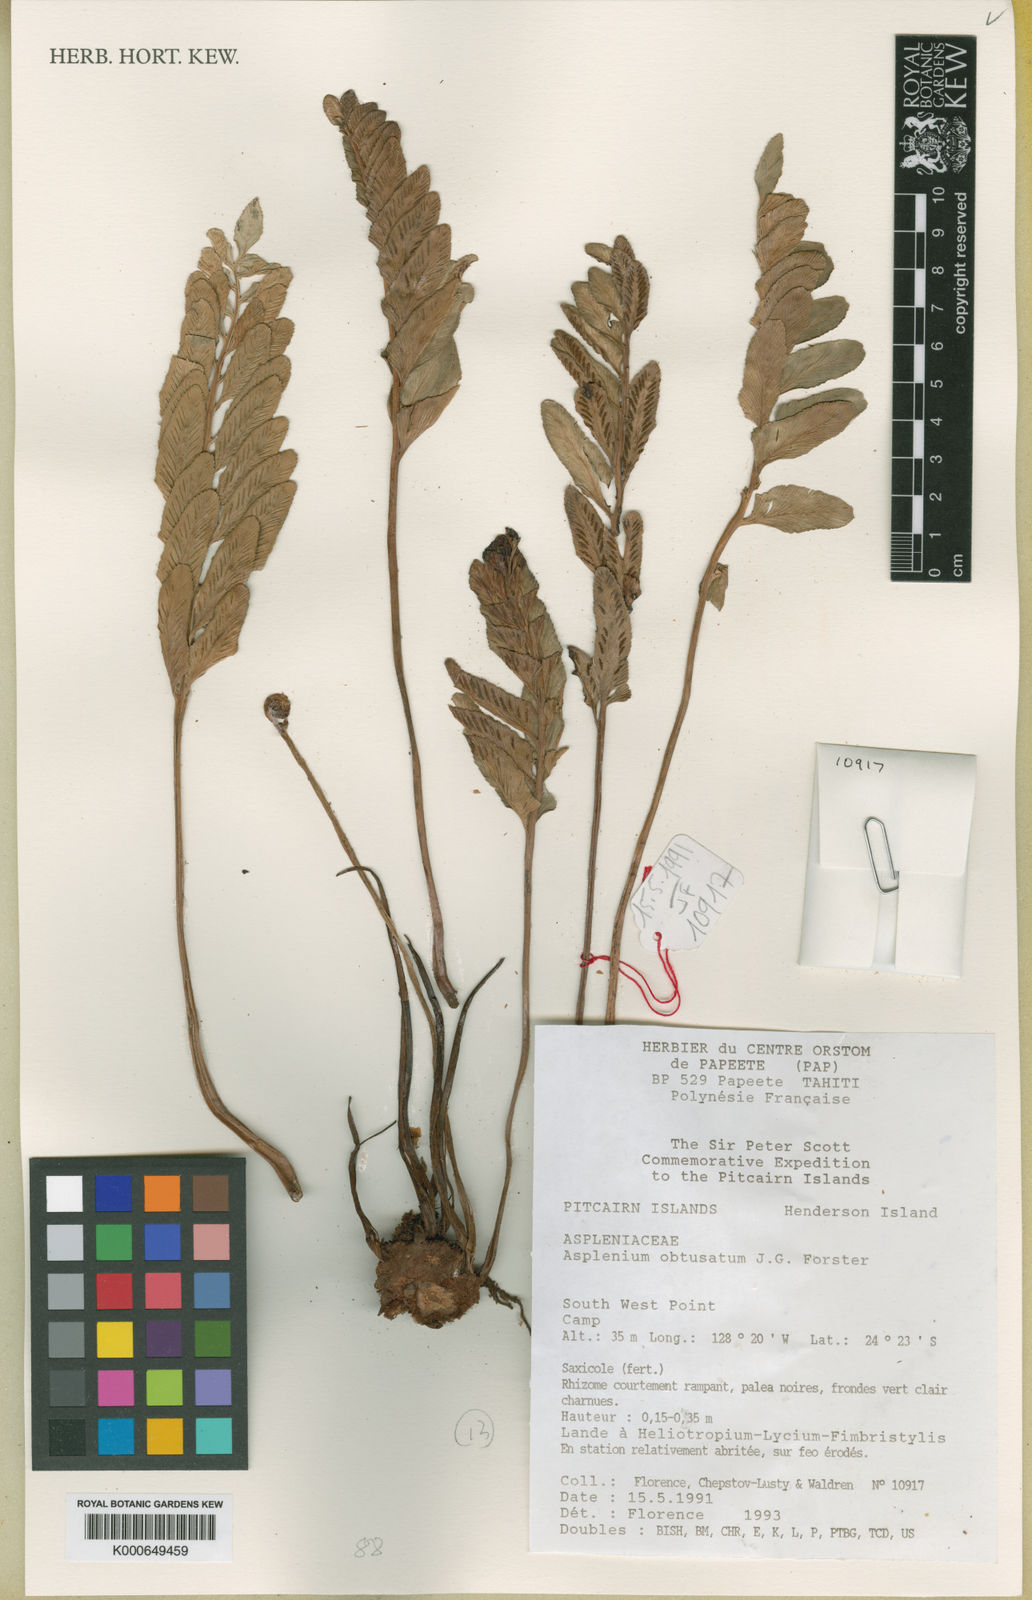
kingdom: Plantae
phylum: Tracheophyta
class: Polypodiopsida
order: Polypodiales
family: Aspleniaceae
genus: Asplenium
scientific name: Asplenium obtusatum
